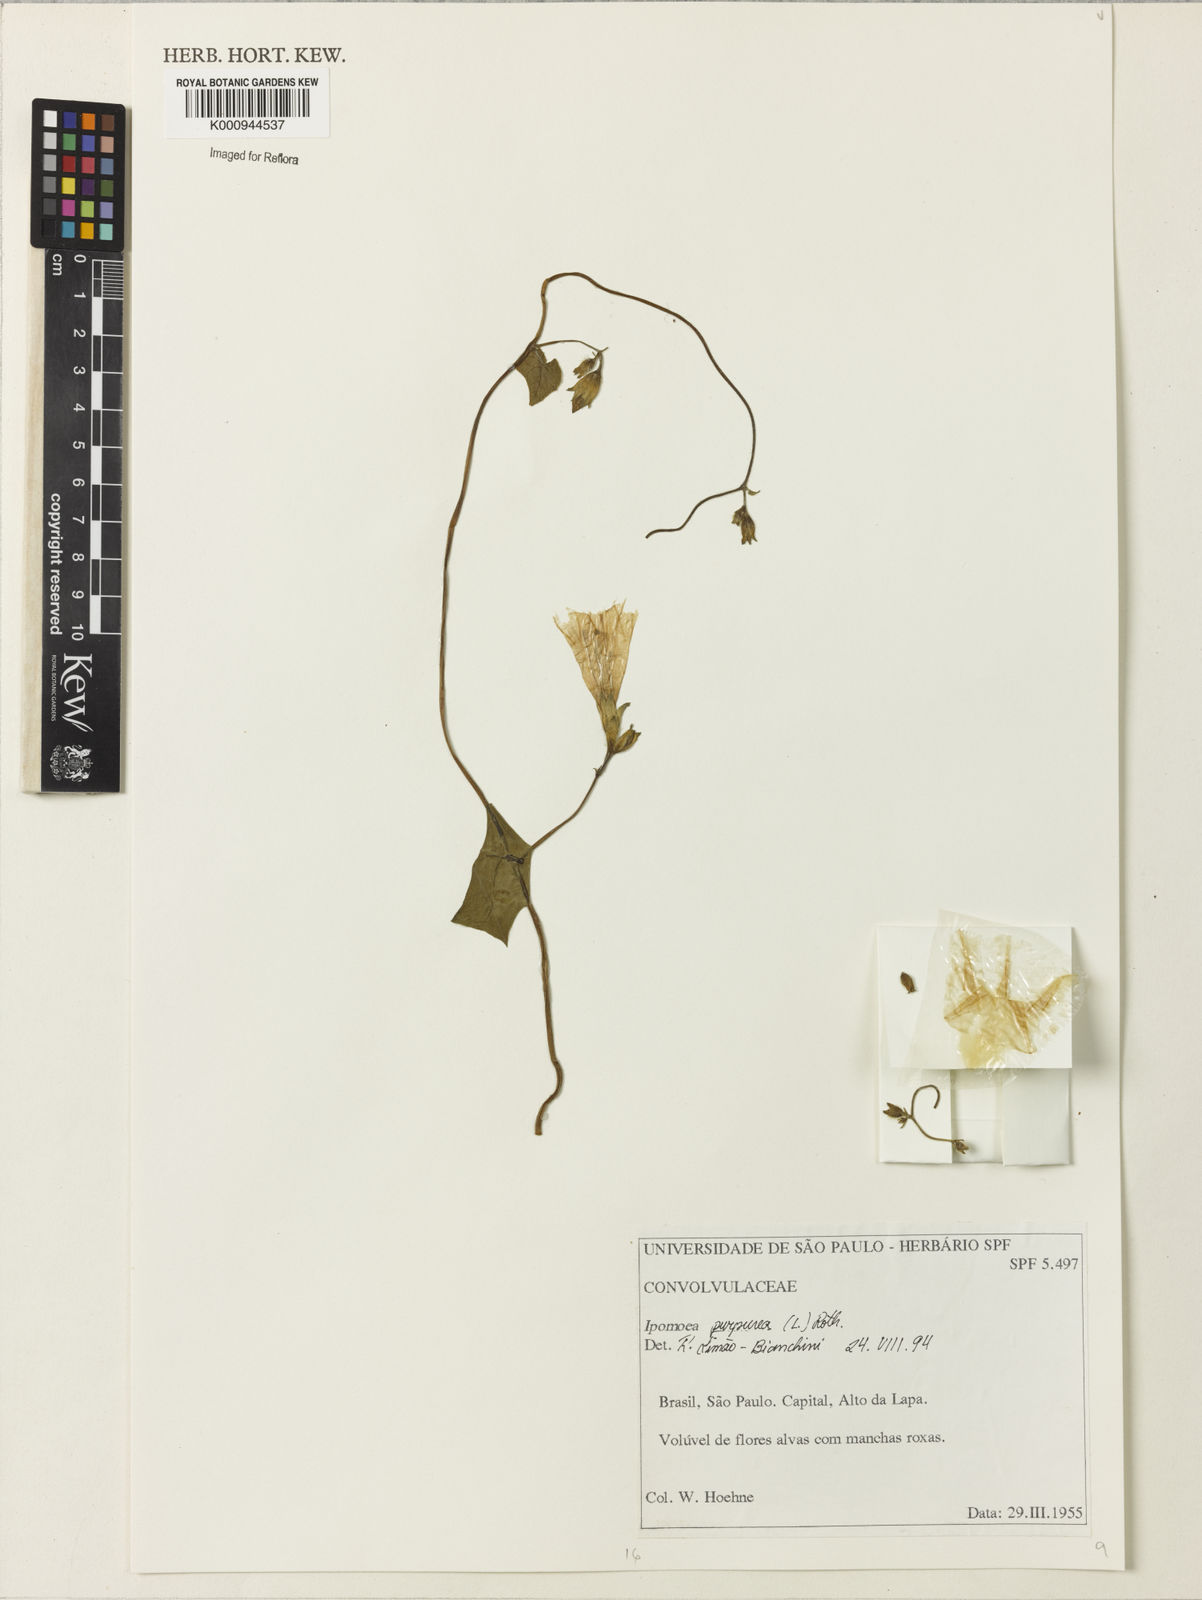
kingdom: Plantae
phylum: Tracheophyta
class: Magnoliopsida
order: Solanales
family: Convolvulaceae
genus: Ipomoea
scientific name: Ipomoea purpurea
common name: Common morning-glory
